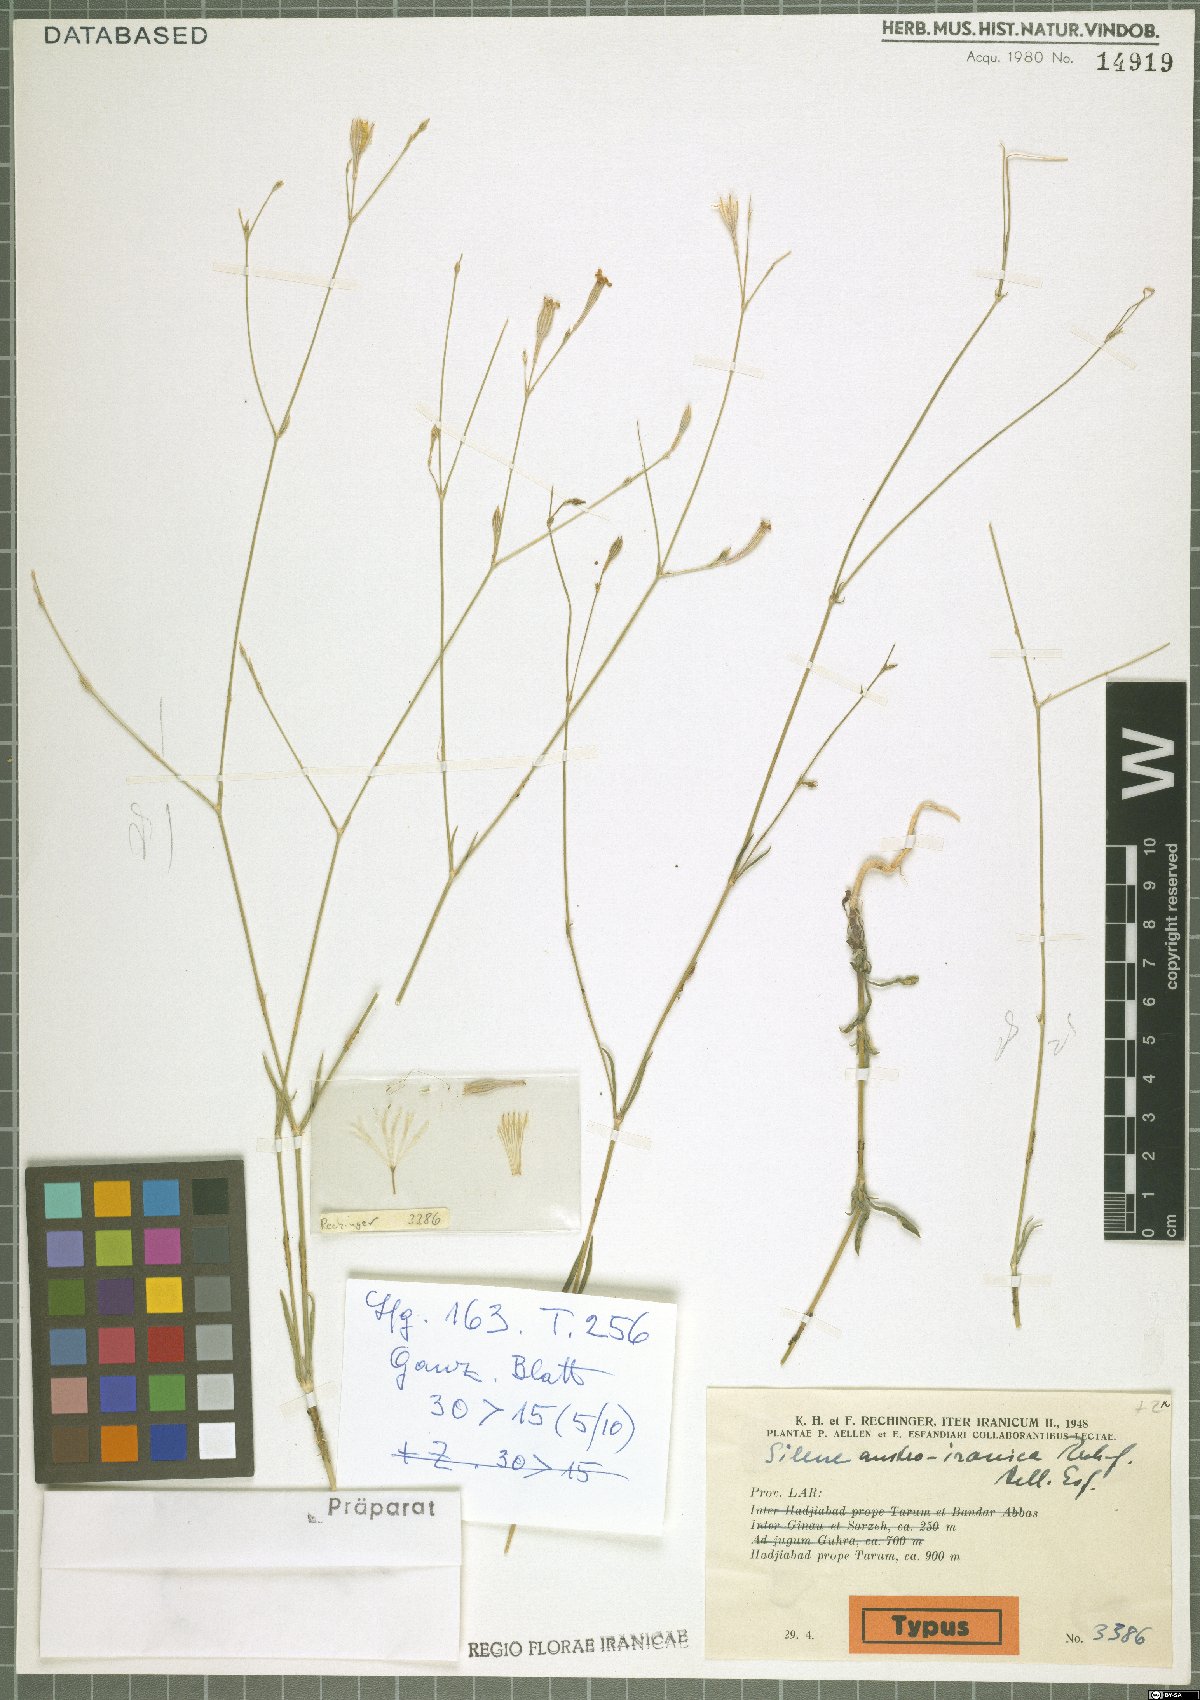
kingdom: Plantae
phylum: Tracheophyta
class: Magnoliopsida
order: Caryophyllales
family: Caryophyllaceae
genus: Silene
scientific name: Silene austroiranica
